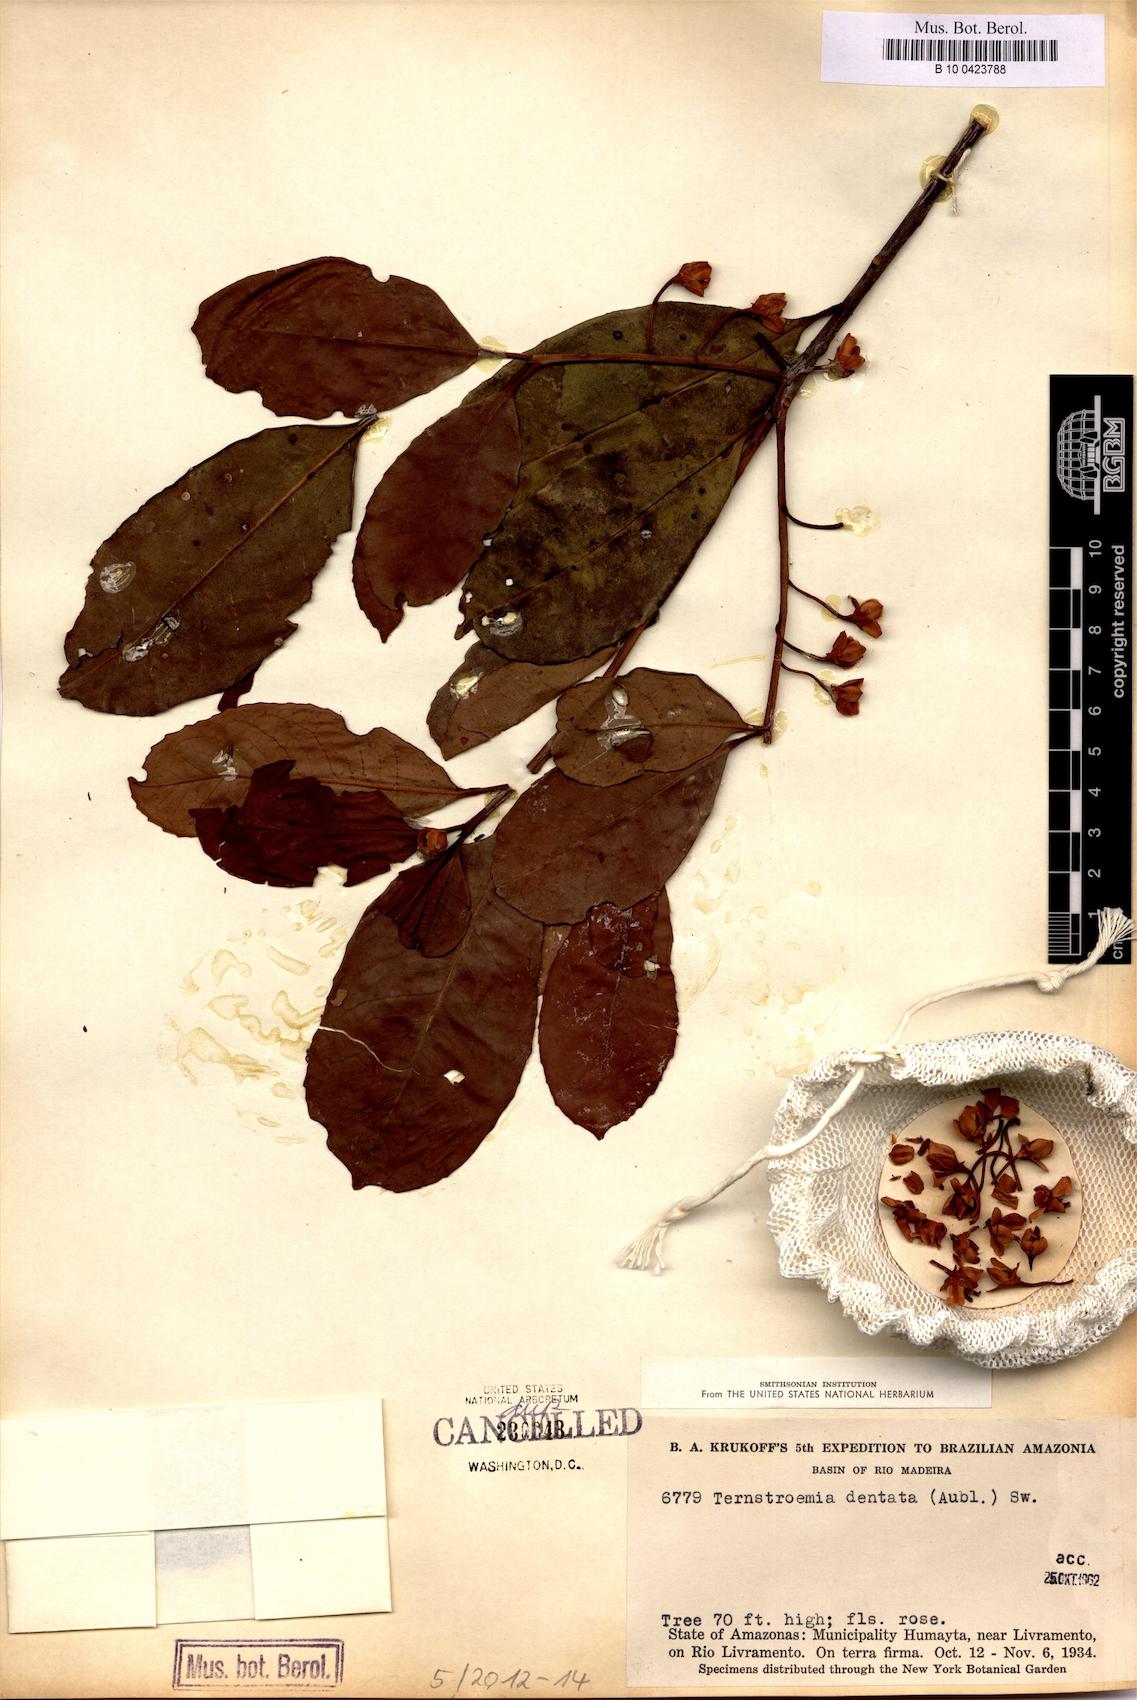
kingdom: Plantae
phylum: Tracheophyta
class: Magnoliopsida
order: Ericales
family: Pentaphylacaceae
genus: Ternstroemia
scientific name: Ternstroemia dentata
